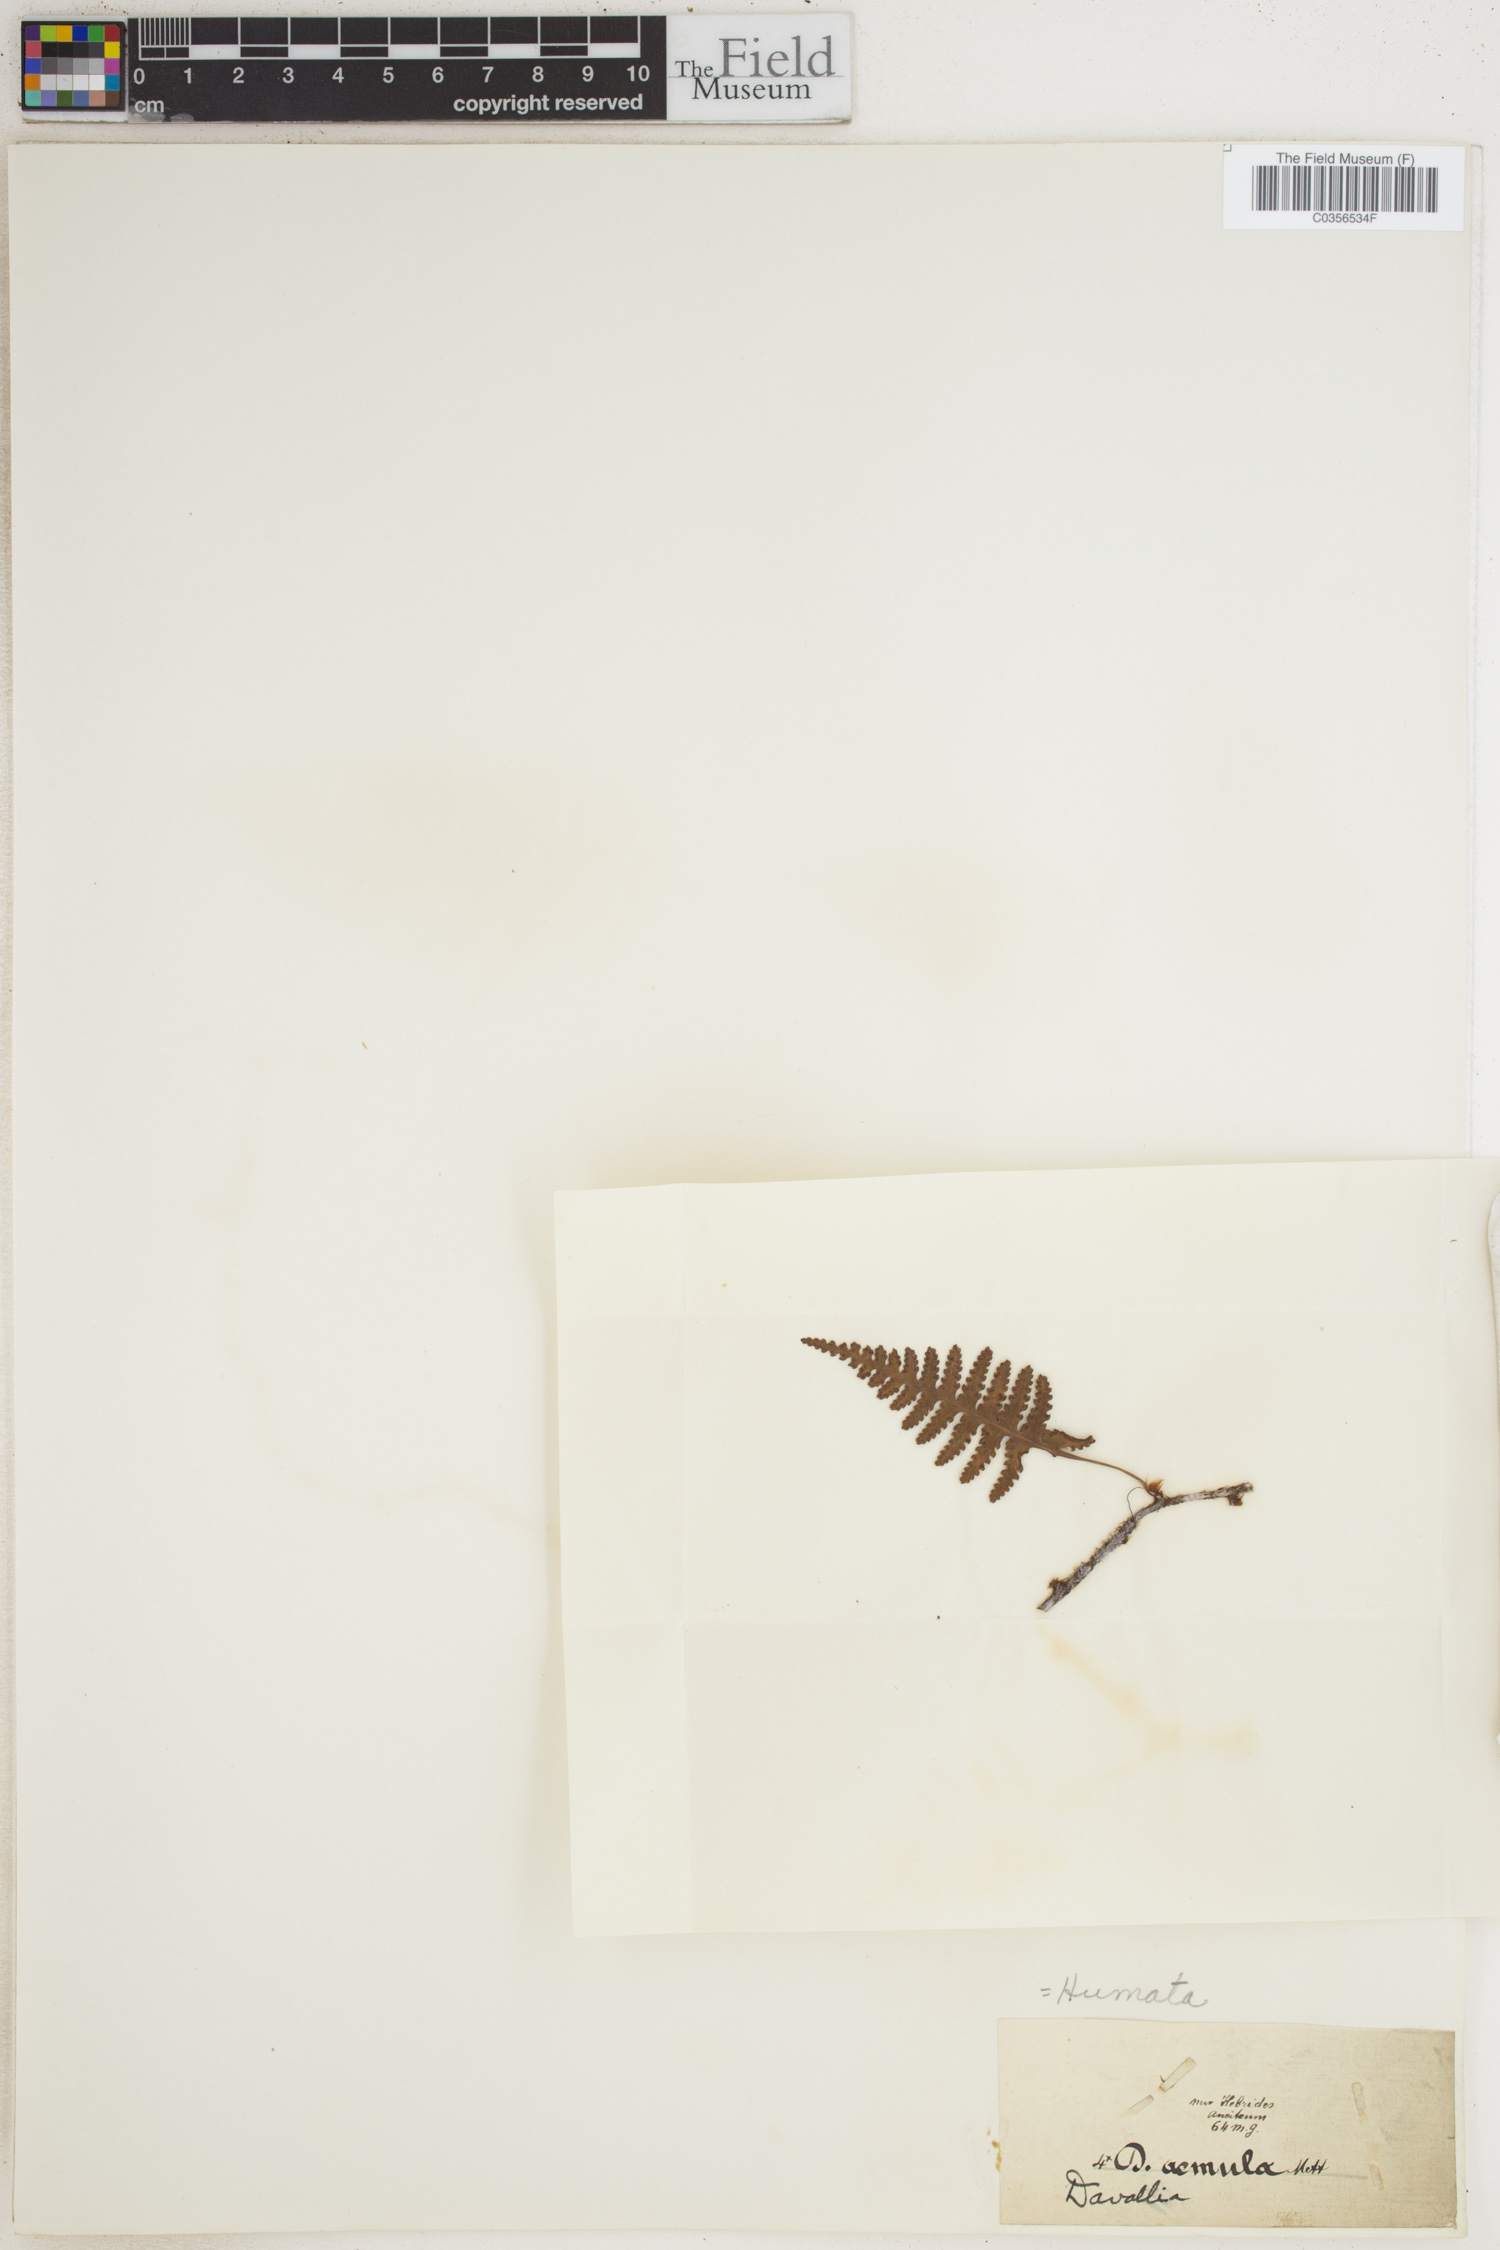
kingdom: Plantae
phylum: Tracheophyta
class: Polypodiopsida
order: Polypodiales
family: Davalliaceae
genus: Davallia
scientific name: Davallia
